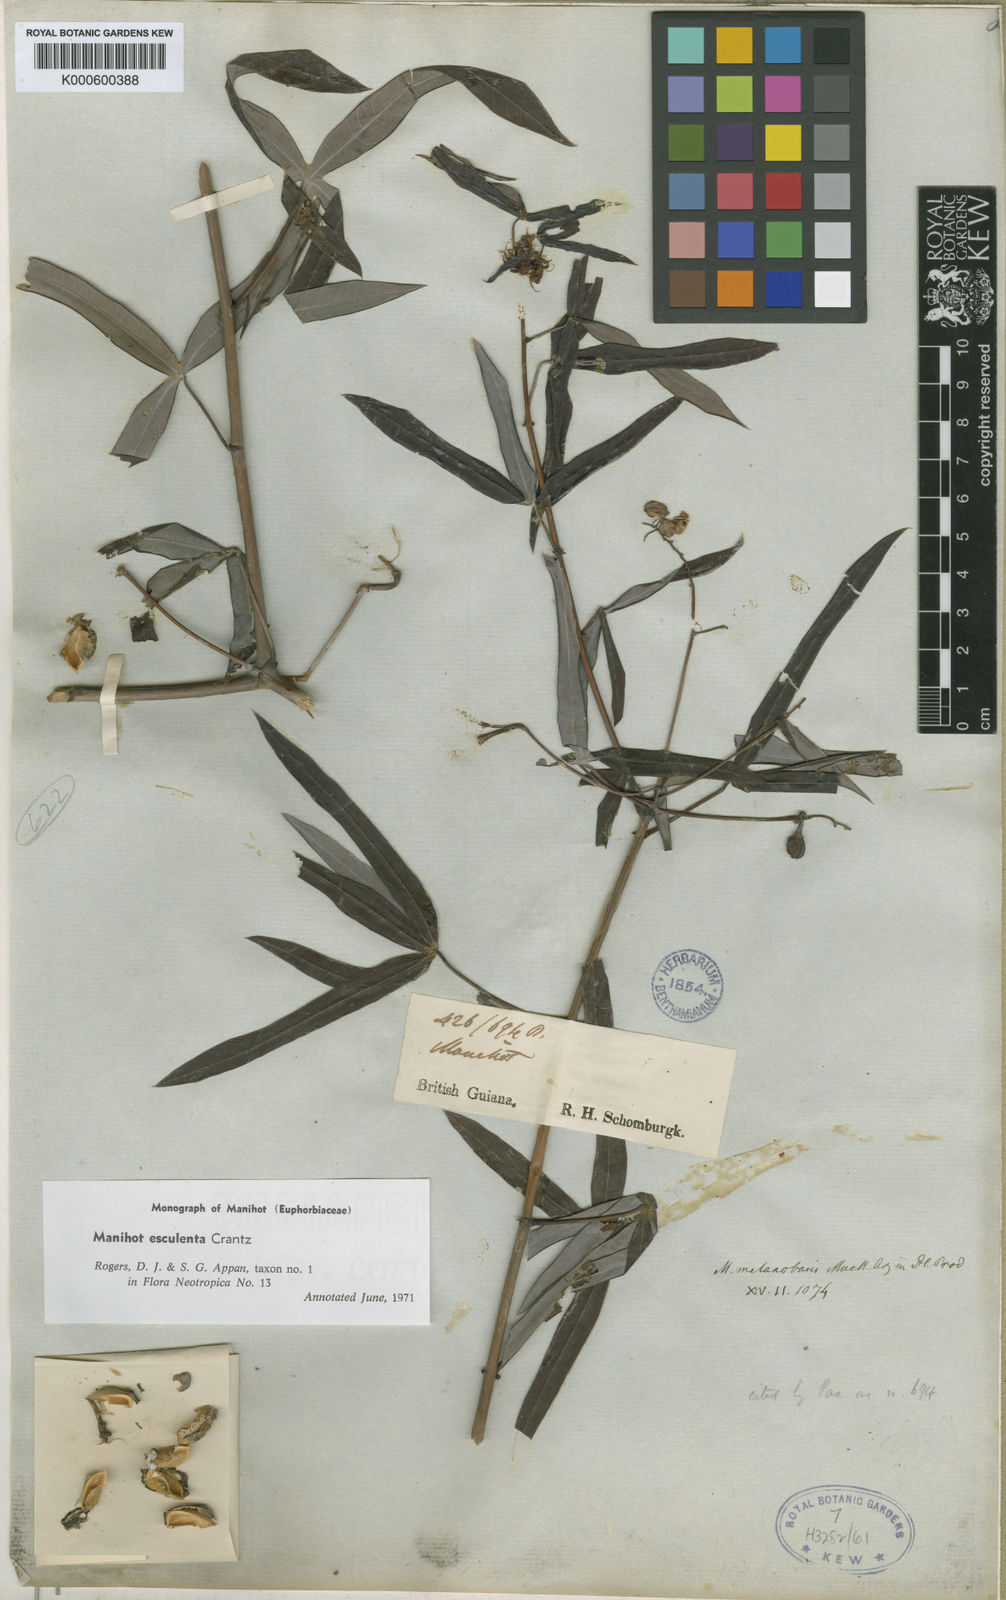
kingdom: Plantae
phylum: Tracheophyta
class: Magnoliopsida
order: Malpighiales
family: Euphorbiaceae
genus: Manihot
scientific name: Manihot esculenta
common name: Cassava
